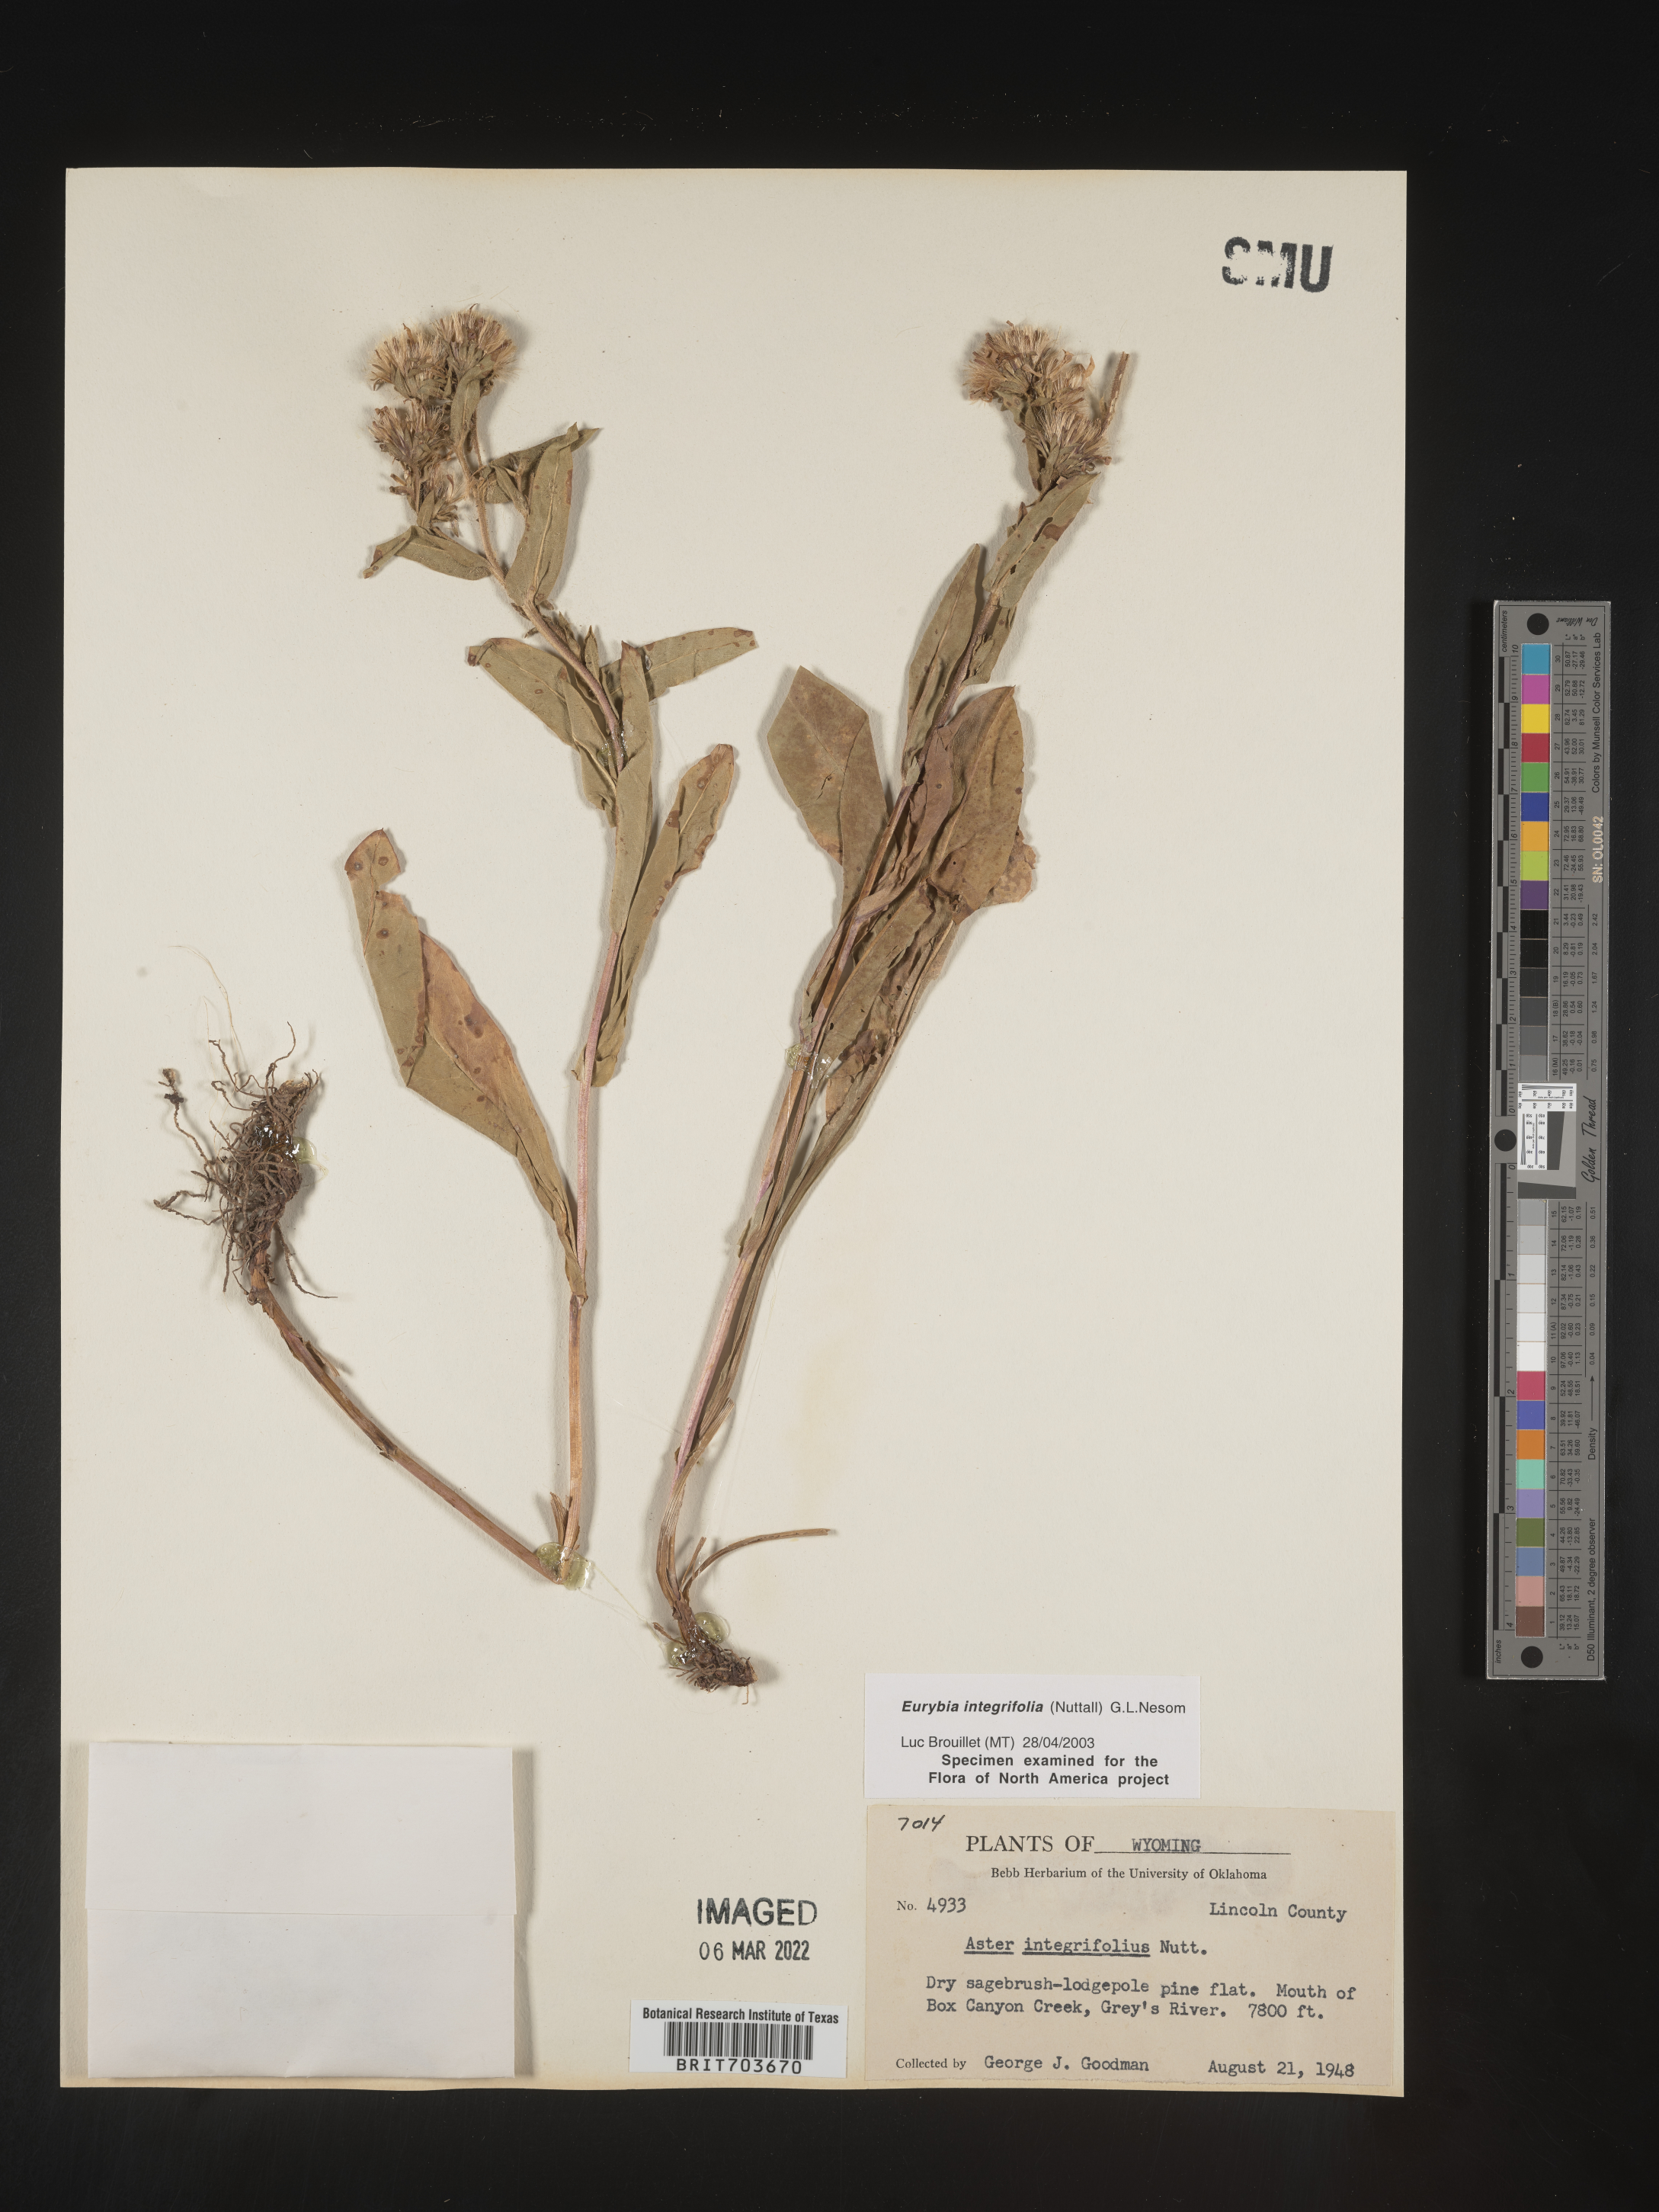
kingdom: Plantae
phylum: Tracheophyta
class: Magnoliopsida
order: Asterales
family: Asteraceae
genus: Eurybia
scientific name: Eurybia integrifolia
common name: Thick-stem aster
